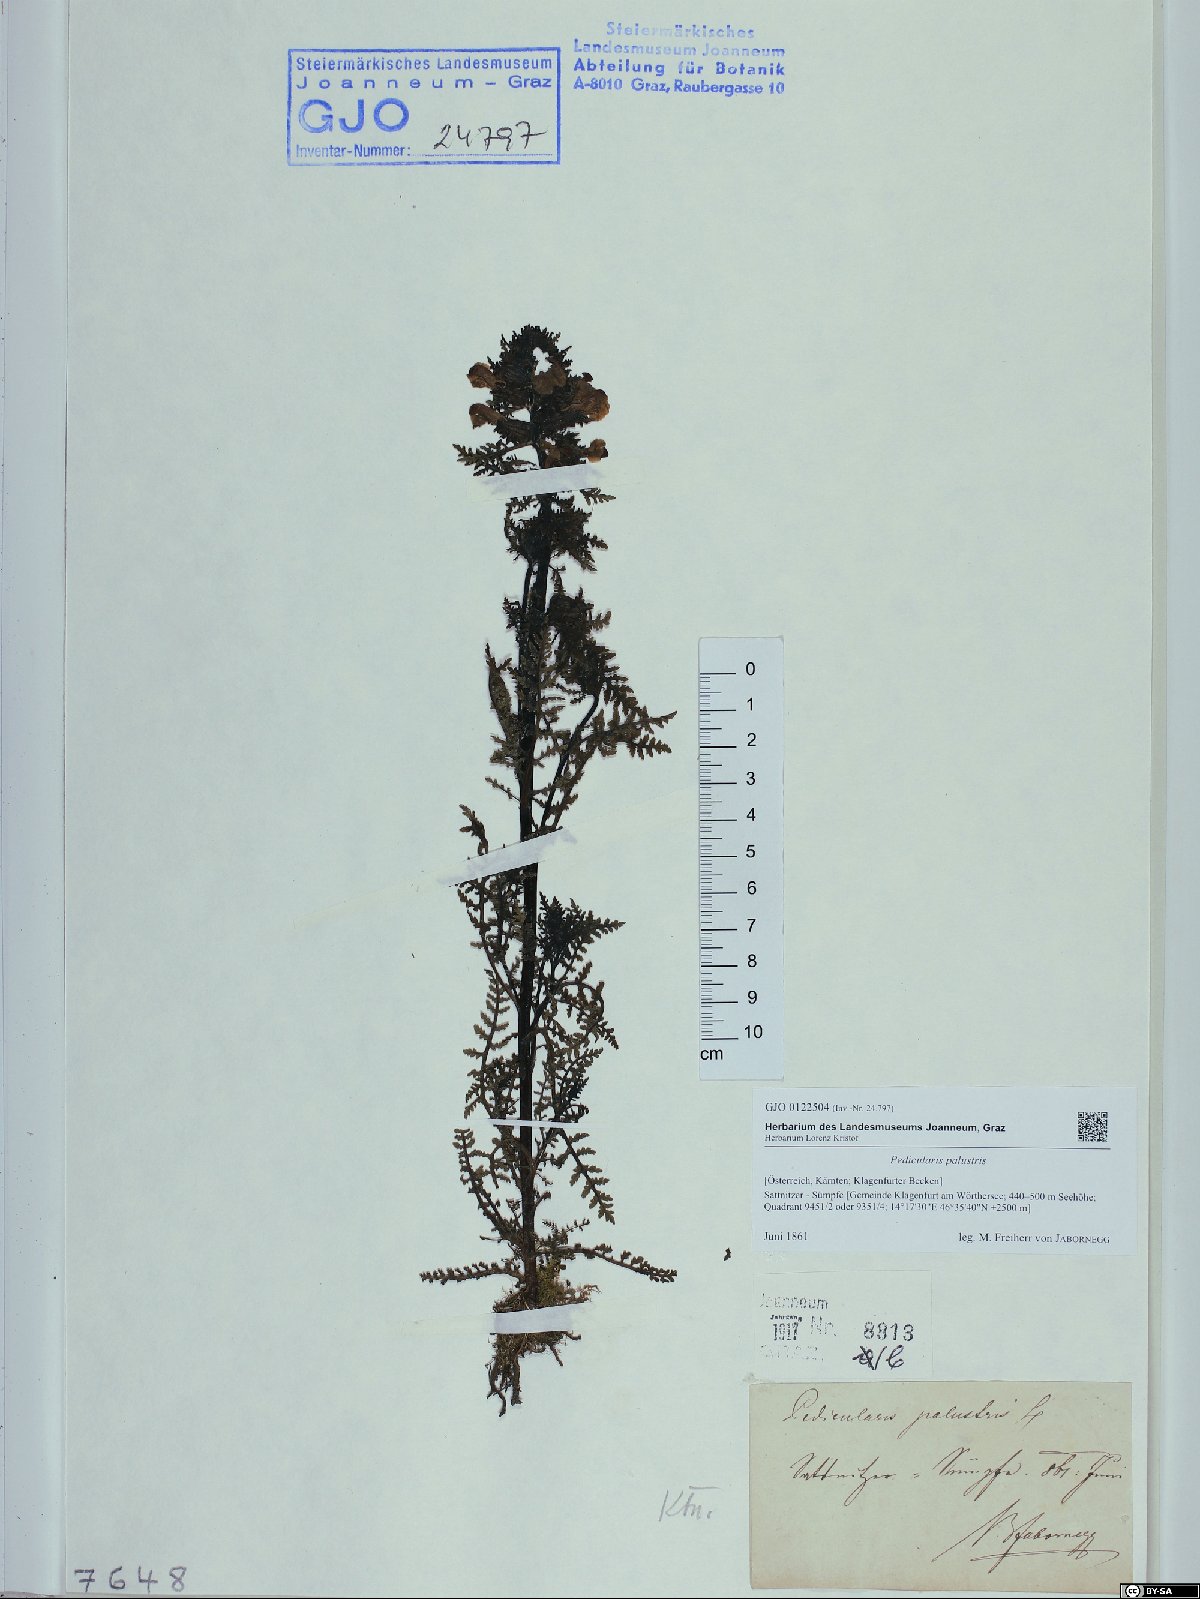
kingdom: Plantae
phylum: Tracheophyta
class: Magnoliopsida
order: Lamiales
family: Orobanchaceae
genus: Pedicularis
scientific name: Pedicularis palustris
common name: Marsh lousewort
